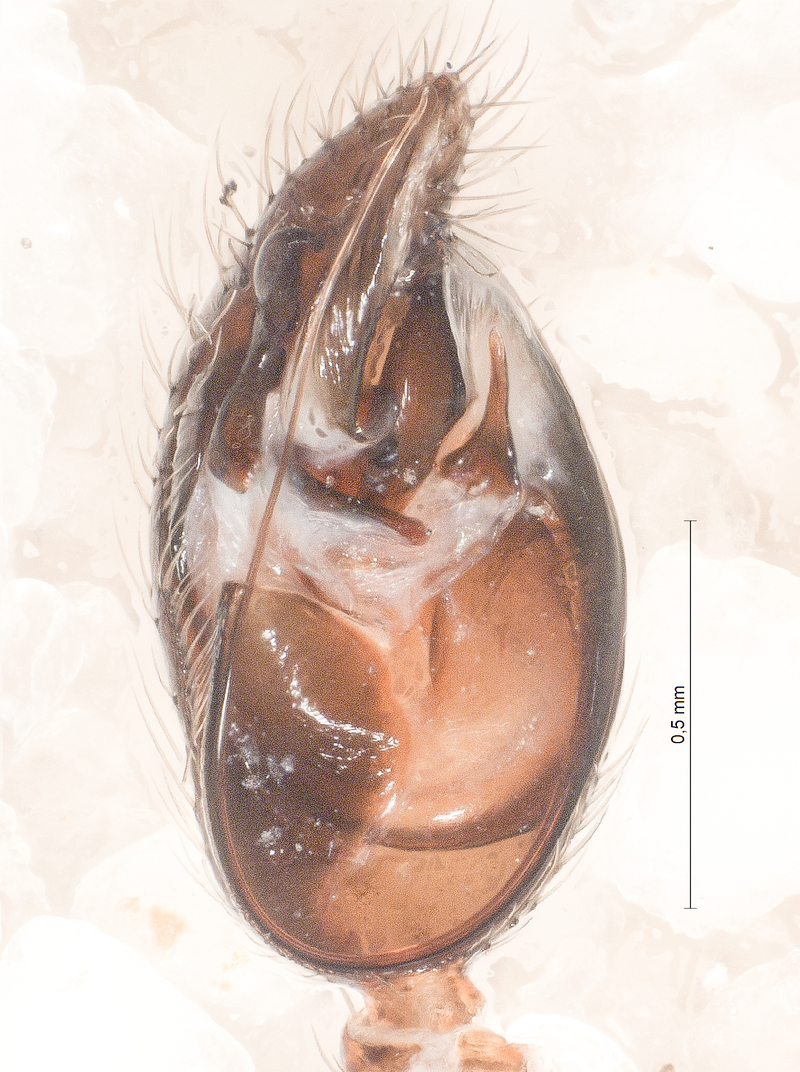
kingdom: Animalia
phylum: Arthropoda
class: Arachnida
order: Araneae
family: Theridiidae
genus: Asagena
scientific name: Asagena phalerata
